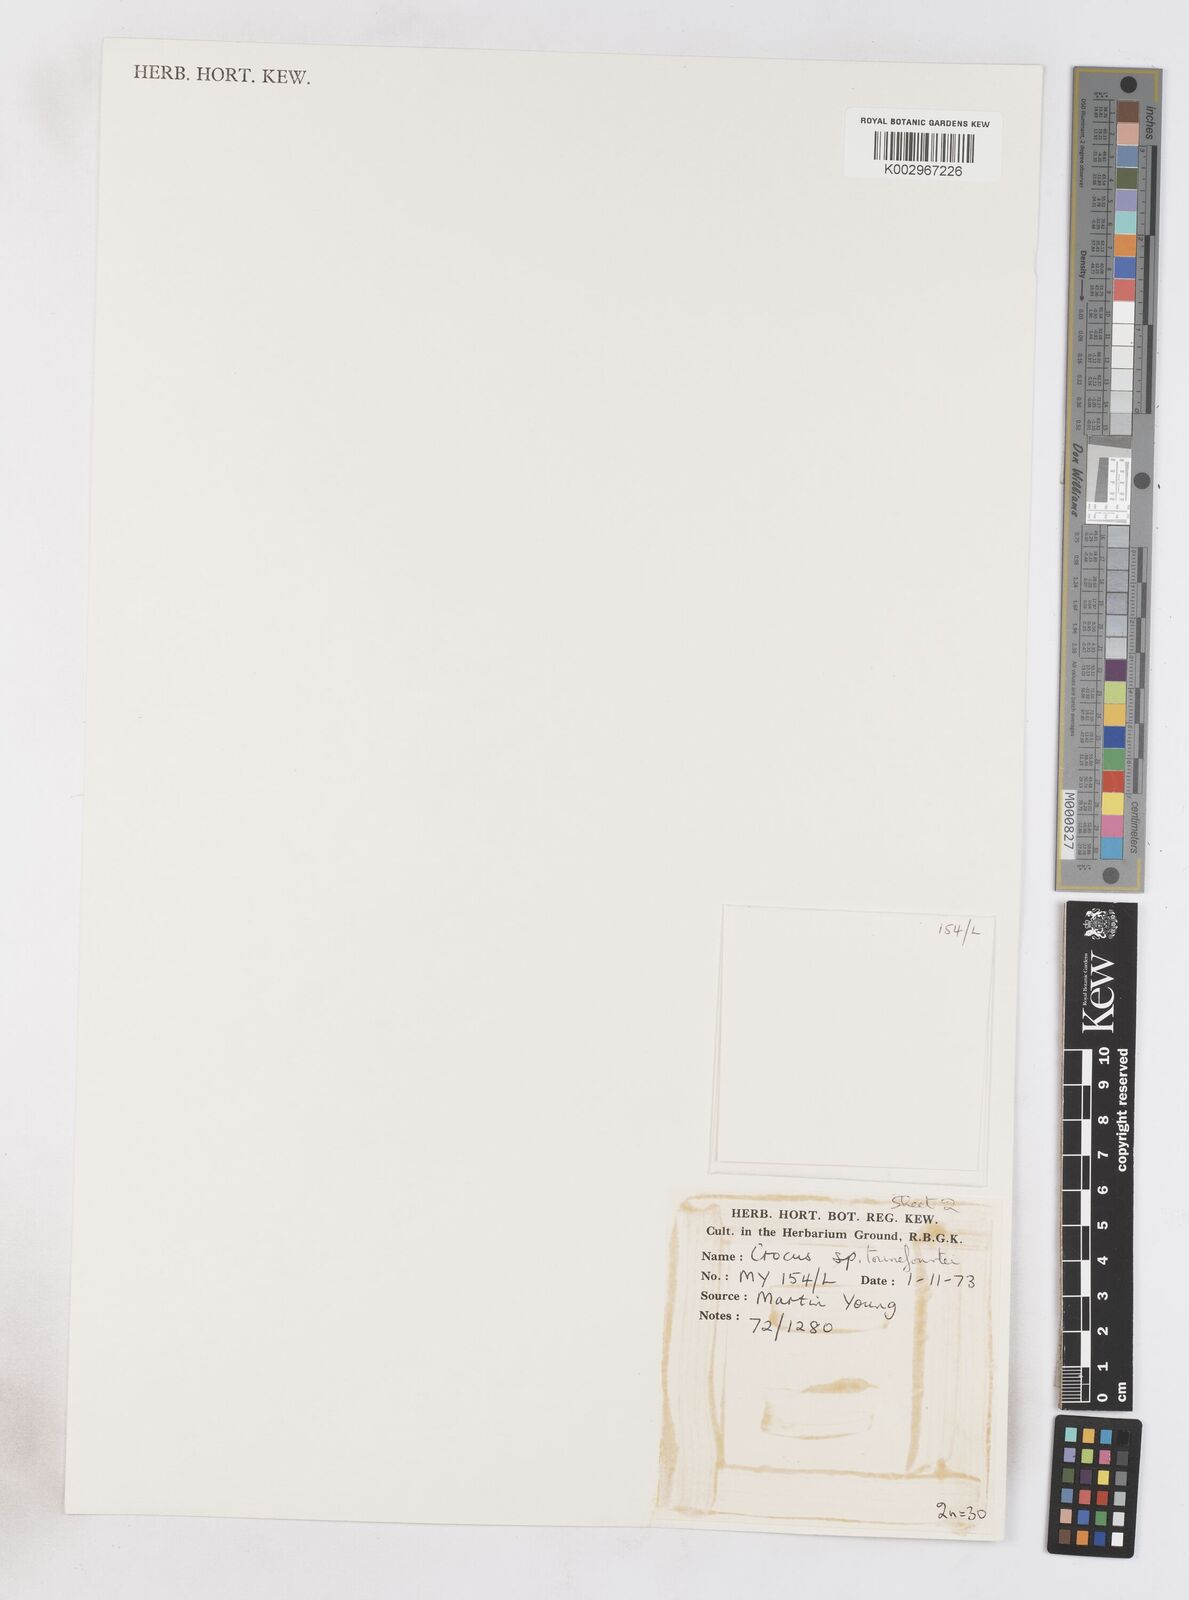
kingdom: Plantae
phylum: Tracheophyta
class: Liliopsida
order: Asparagales
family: Iridaceae
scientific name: Iridaceae
